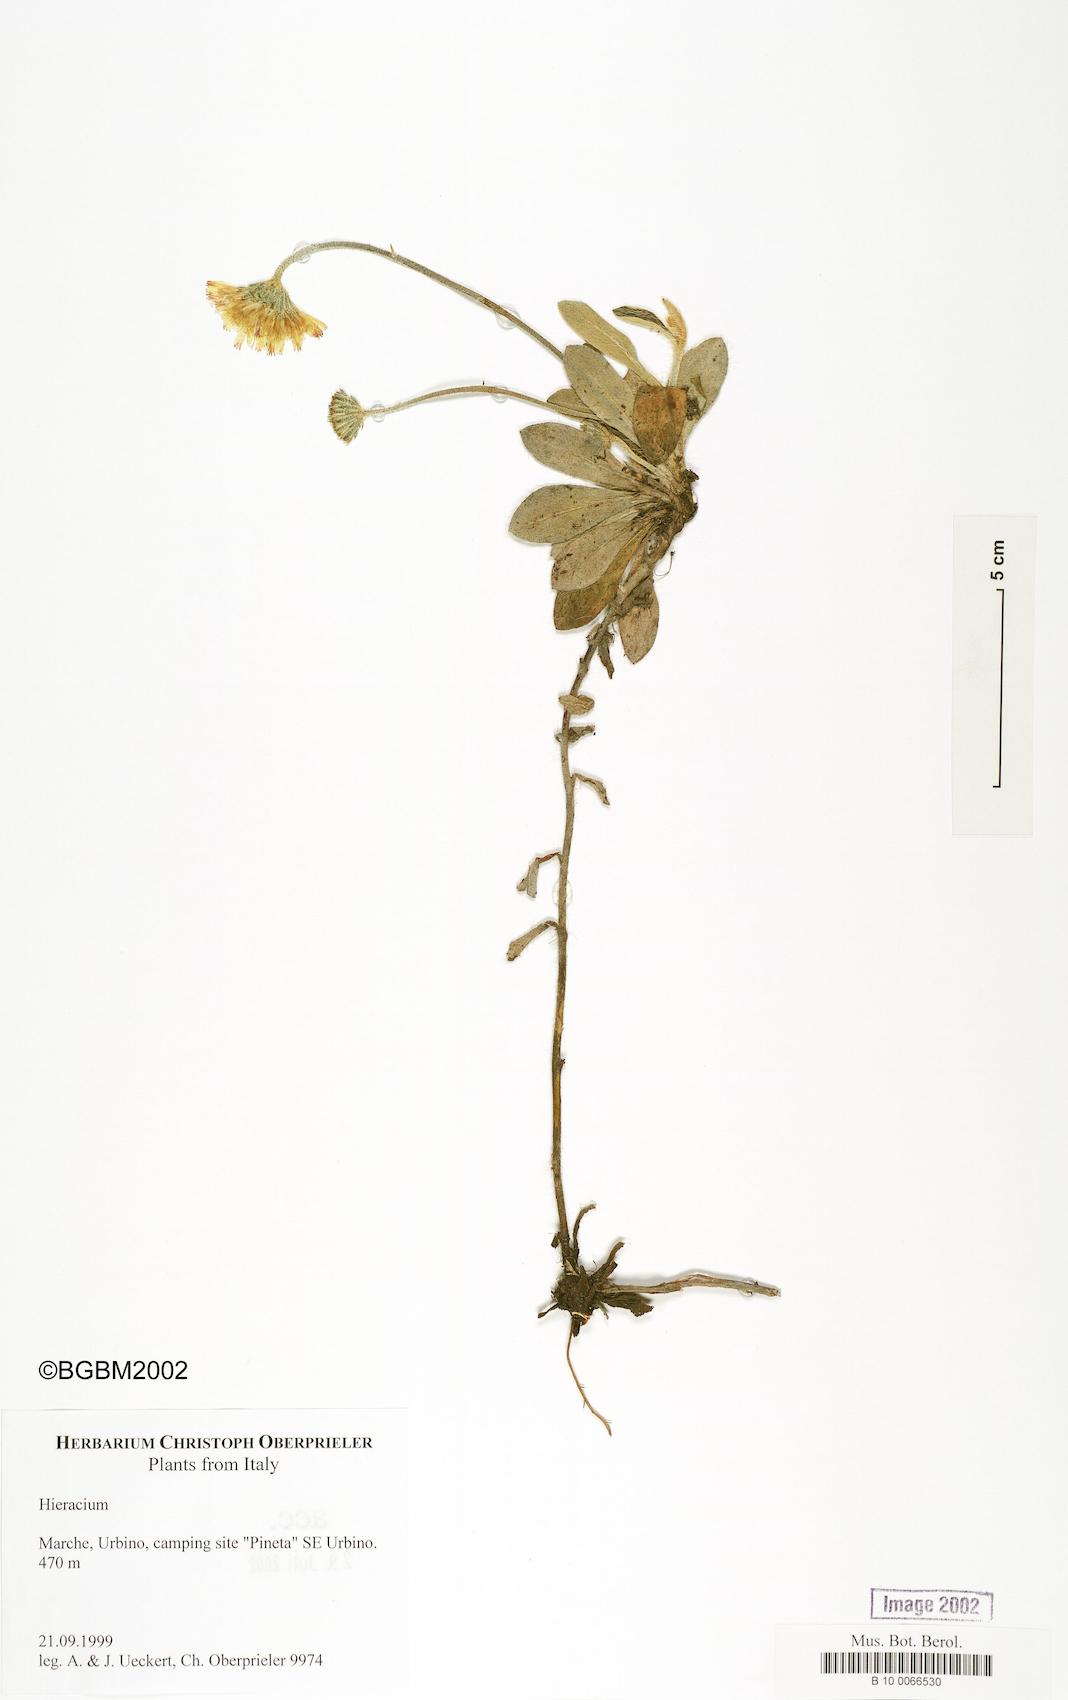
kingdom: Plantae
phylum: Tracheophyta
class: Magnoliopsida
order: Asterales
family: Asteraceae
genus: Pilosella
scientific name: Pilosella officinarum
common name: Mouse-ear hawkweed
